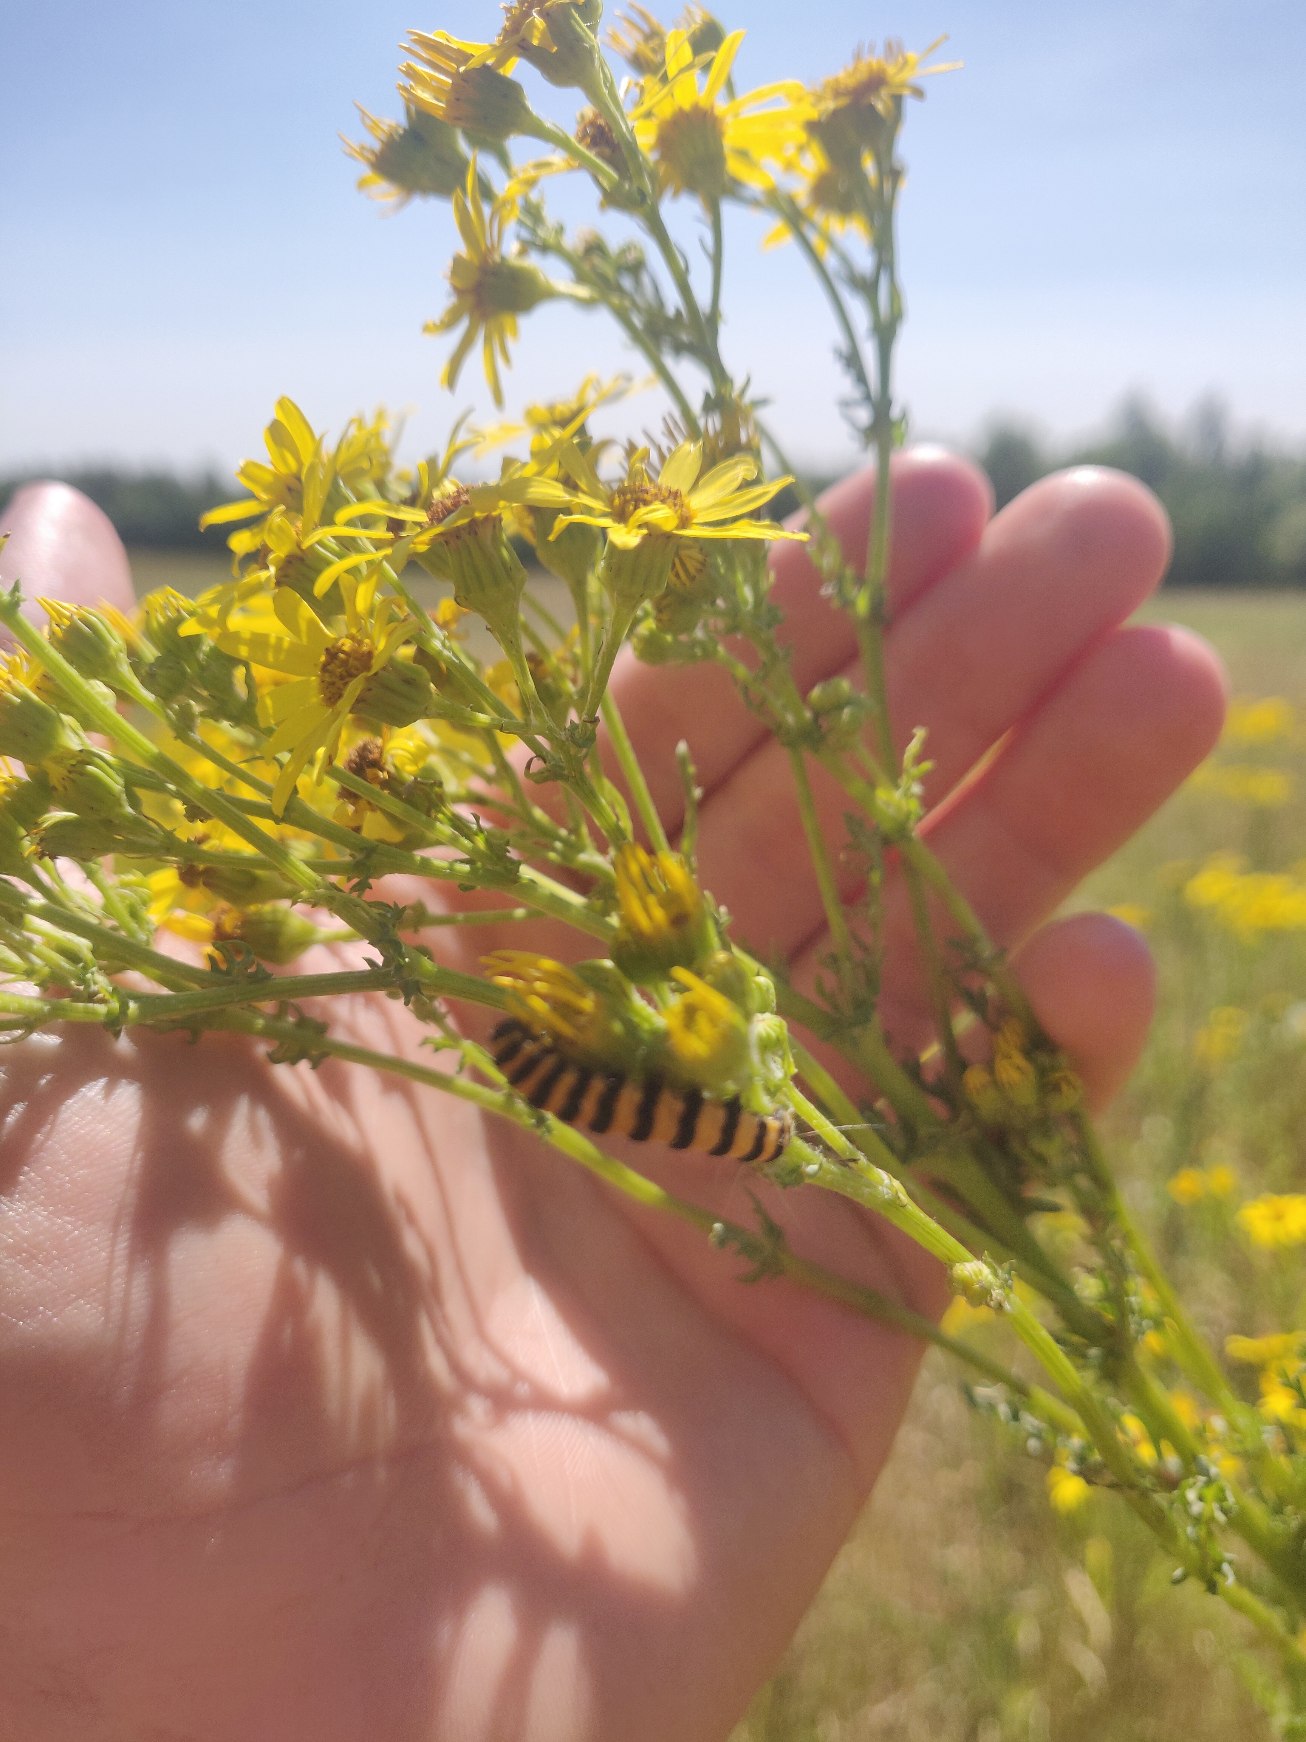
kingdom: Animalia
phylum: Arthropoda
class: Insecta
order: Lepidoptera
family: Erebidae
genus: Tyria
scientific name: Tyria jacobaeae
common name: Blodplet
